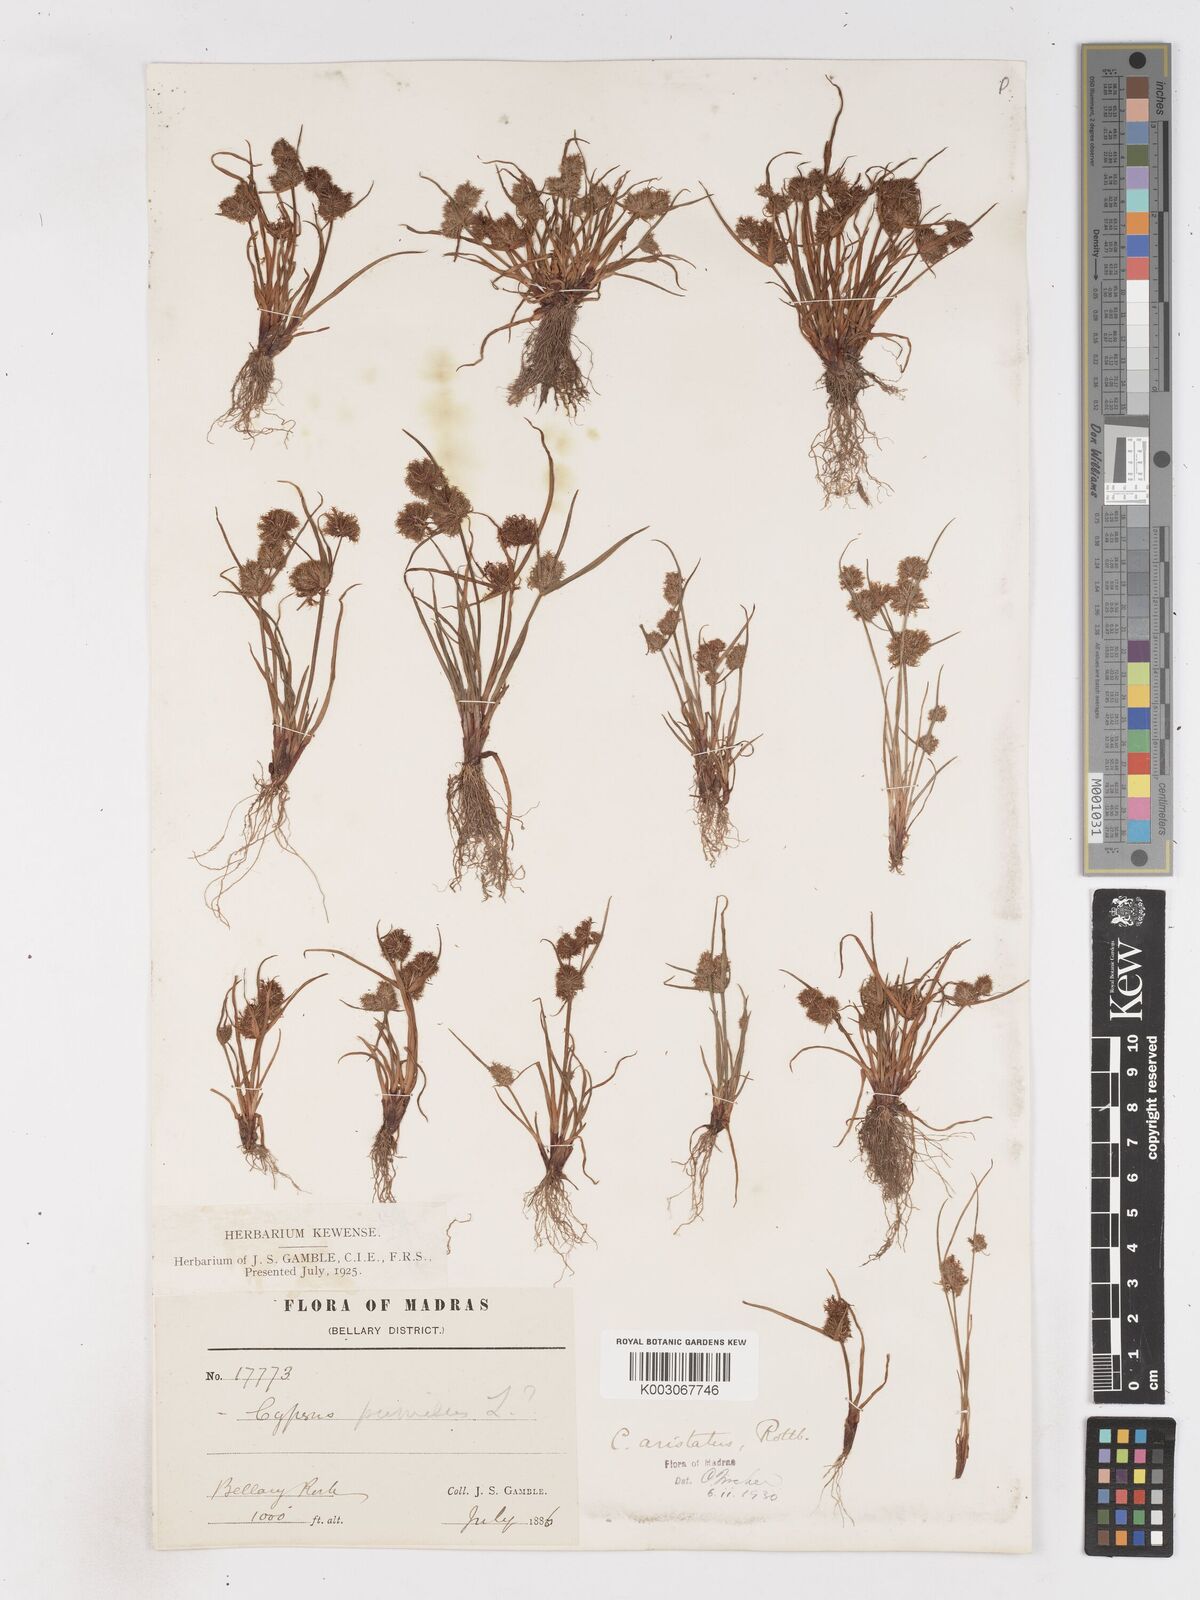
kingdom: Plantae
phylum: Tracheophyta
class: Liliopsida
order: Poales
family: Cyperaceae
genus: Cyperus
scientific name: Cyperus squarrosus
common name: Awned cyperus
